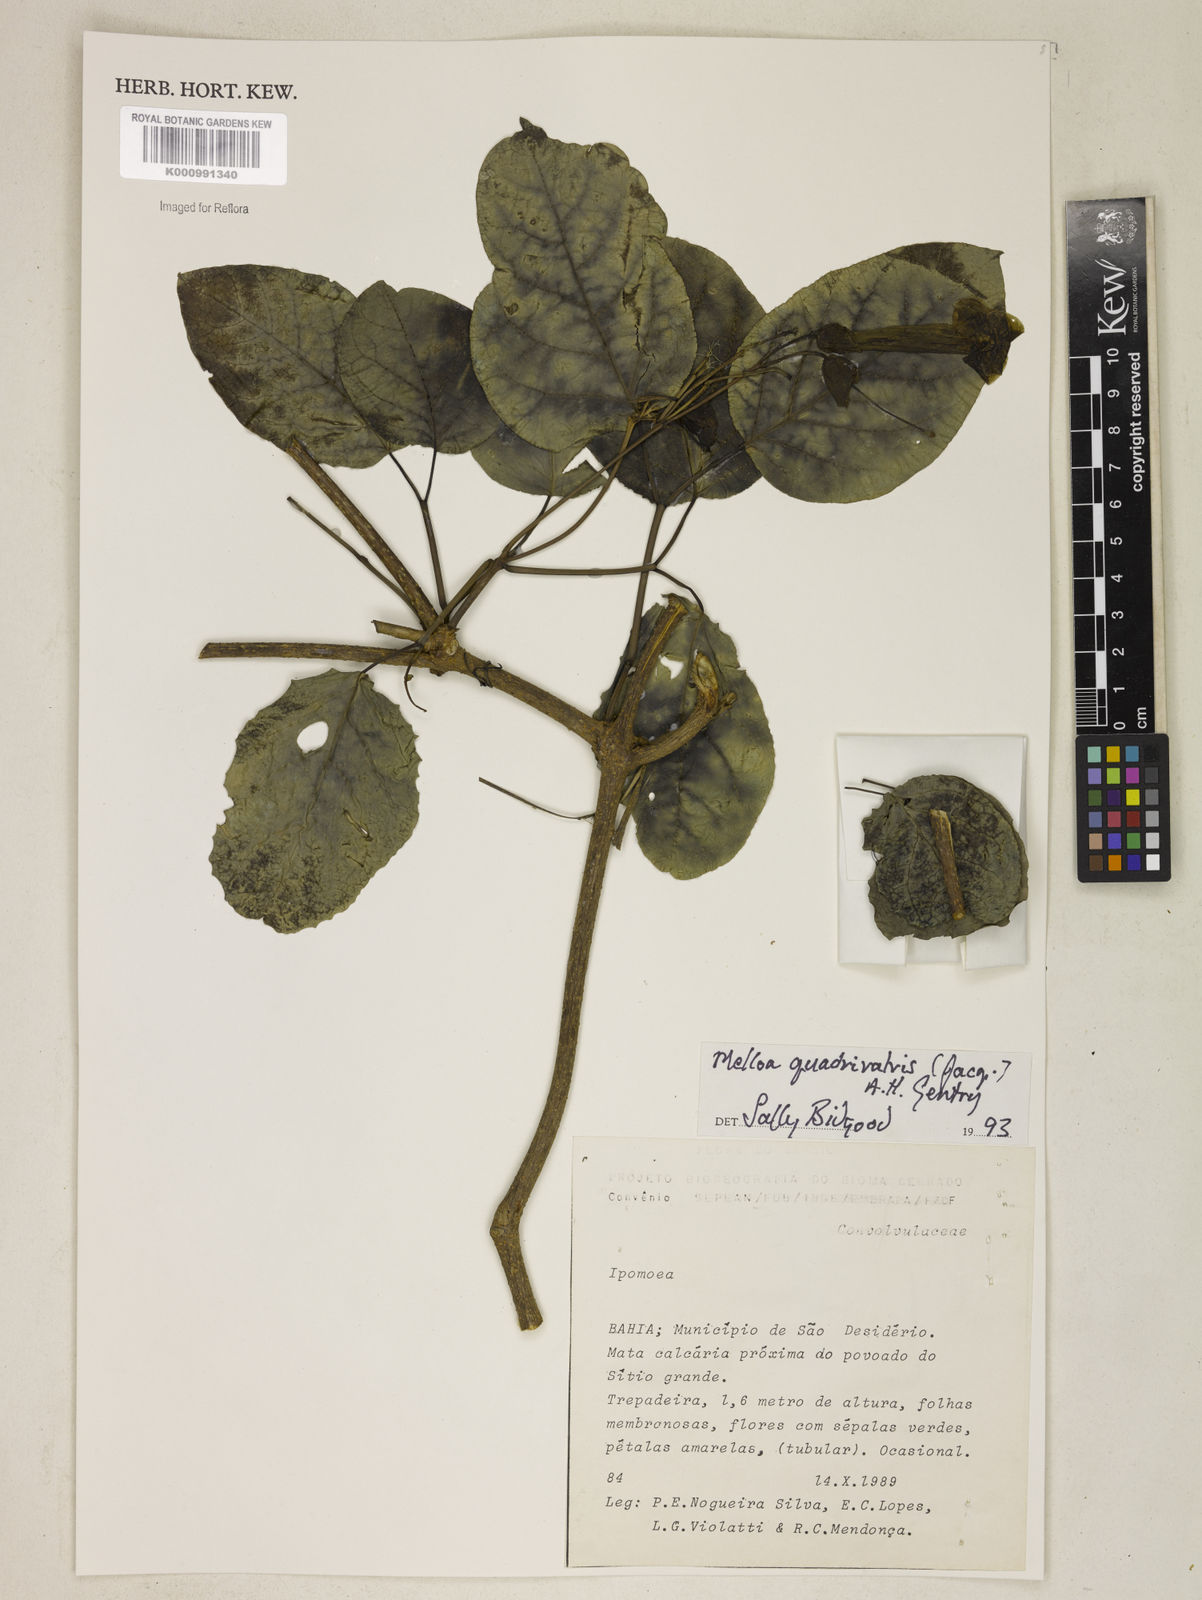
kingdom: Plantae
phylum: Tracheophyta
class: Magnoliopsida
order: Lamiales
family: Bignoniaceae
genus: Dolichandra
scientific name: Dolichandra quadrivalvis
